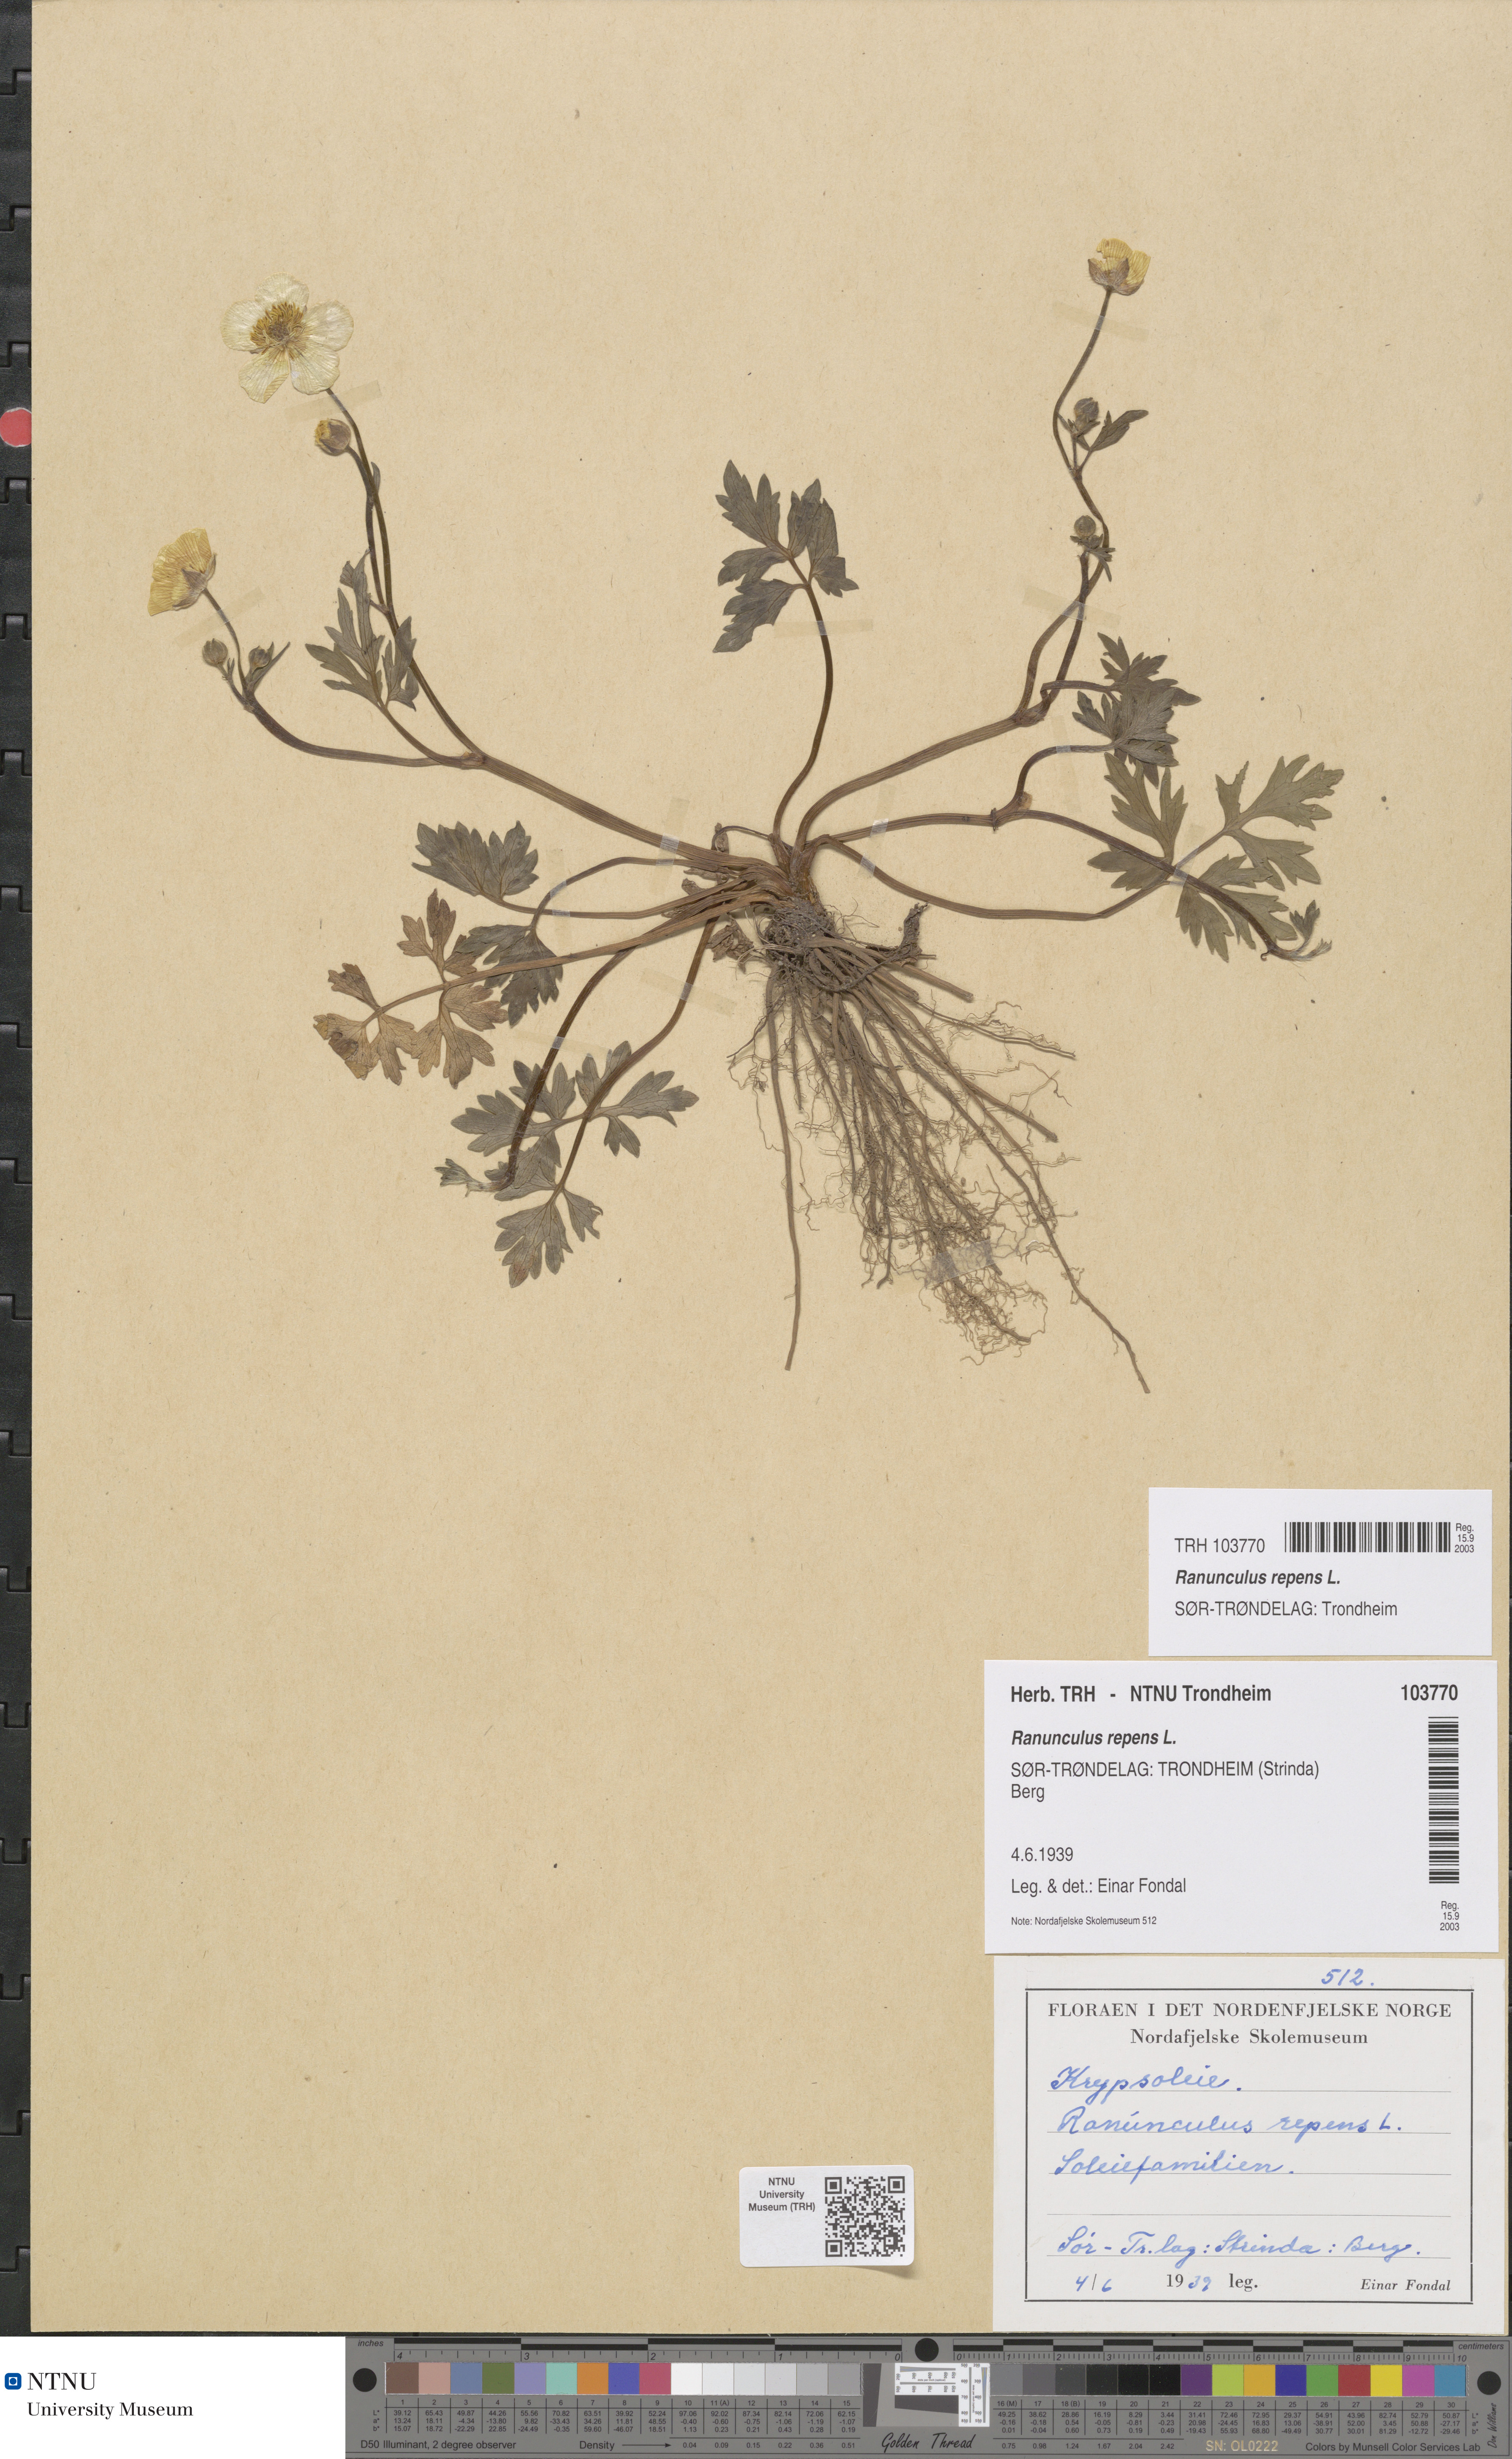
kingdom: Plantae
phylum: Tracheophyta
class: Magnoliopsida
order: Ranunculales
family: Ranunculaceae
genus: Ranunculus
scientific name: Ranunculus repens
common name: Creeping buttercup
